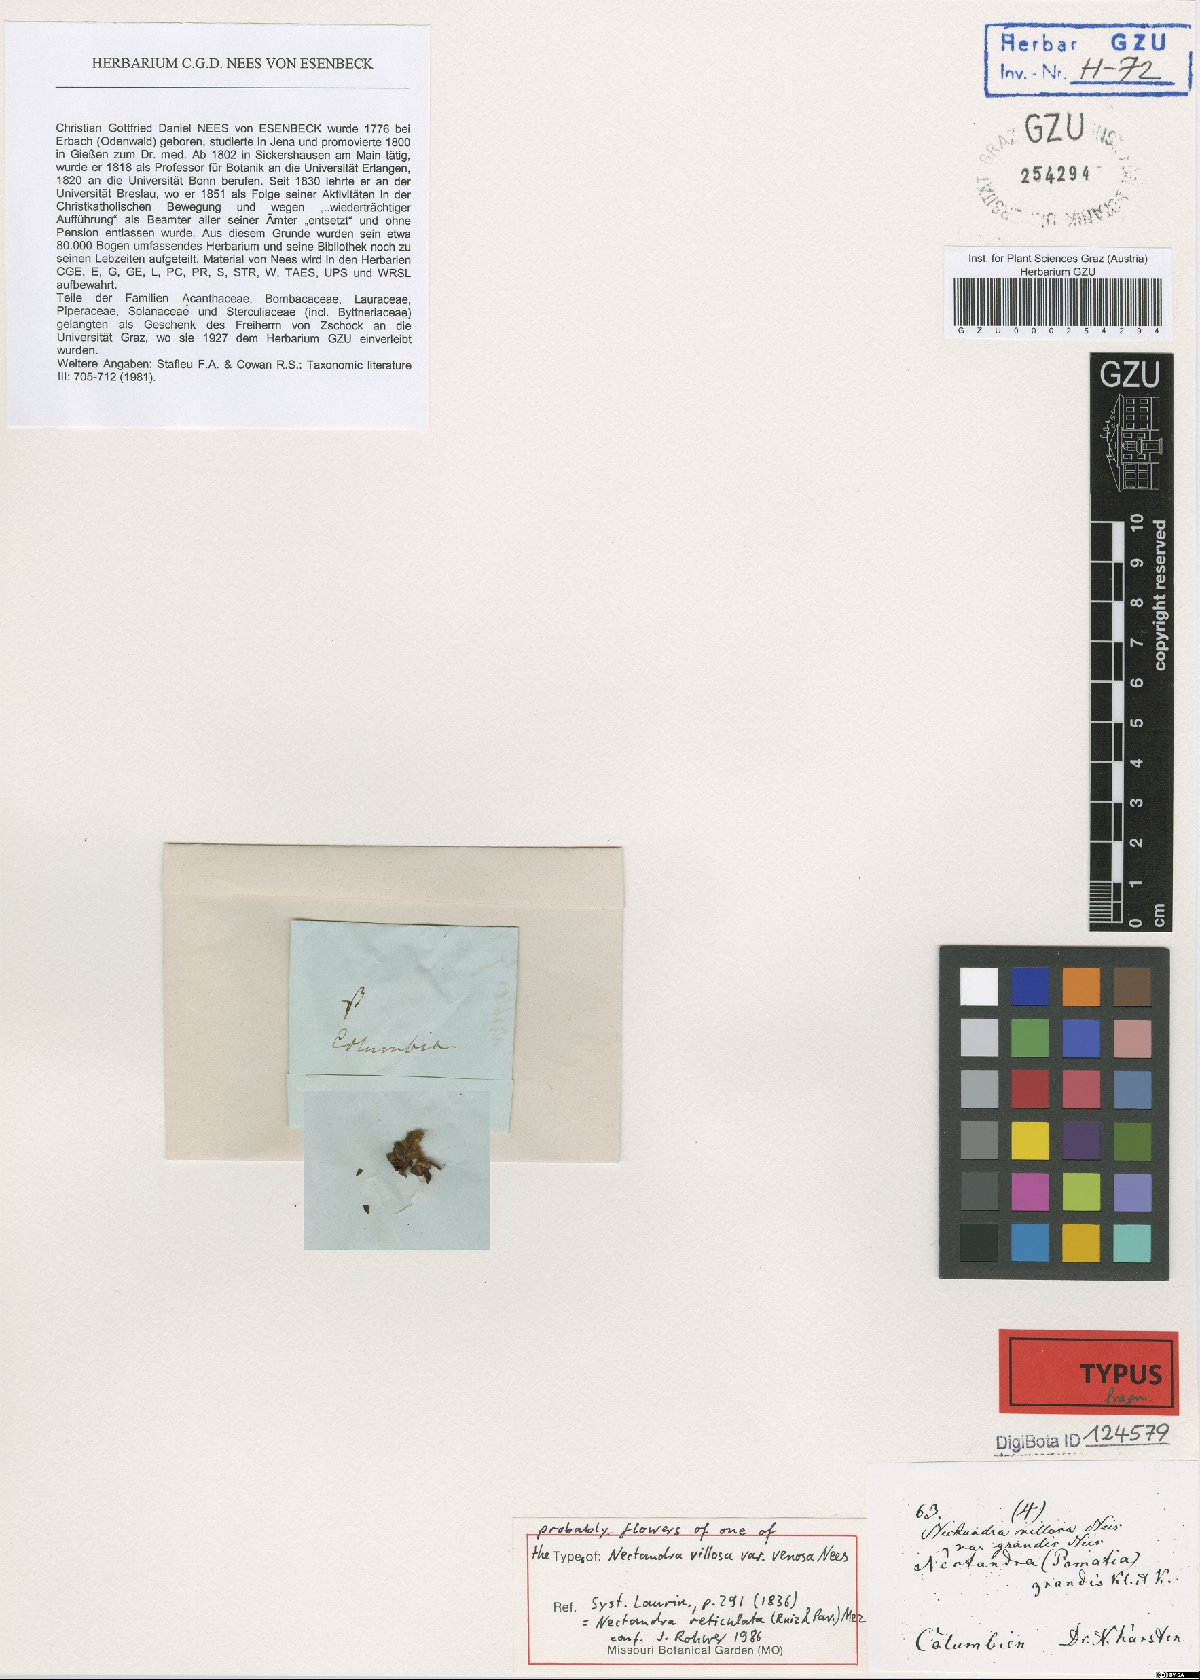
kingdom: Plantae
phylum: Tracheophyta
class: Magnoliopsida
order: Laurales
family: Lauraceae
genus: Nectandra
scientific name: Nectandra villosa
